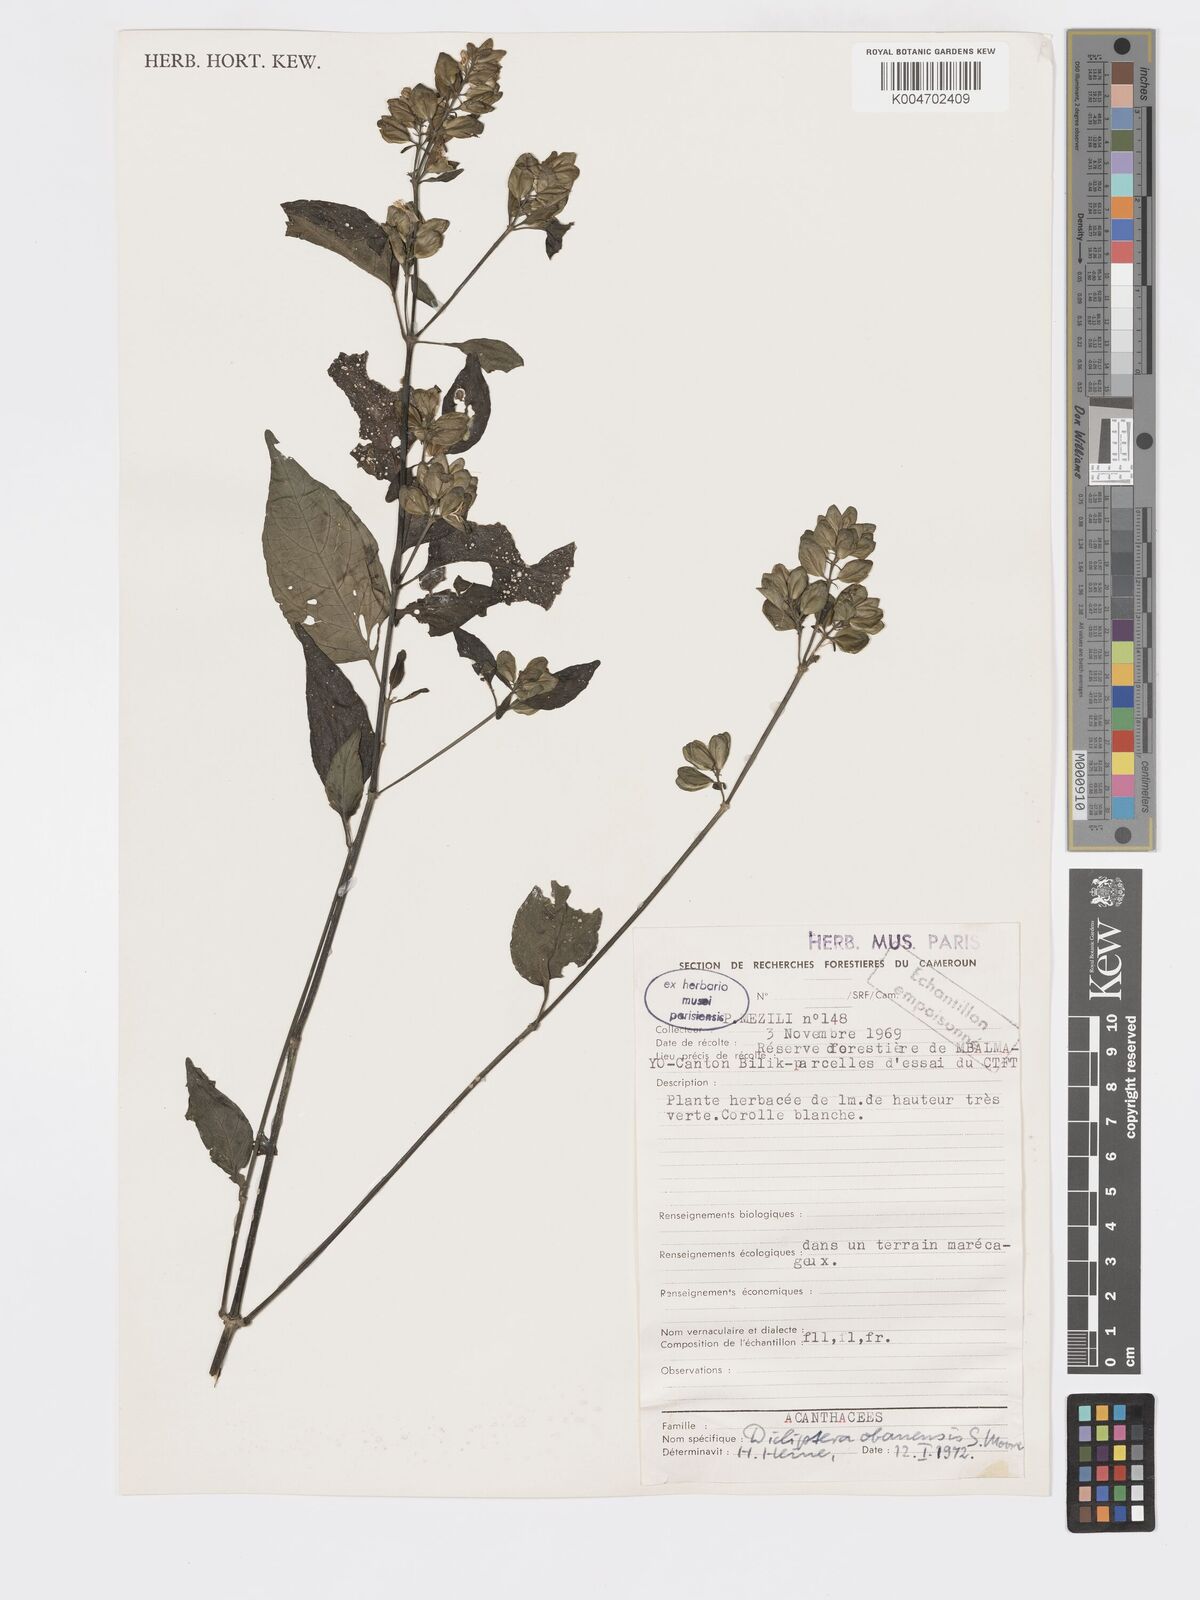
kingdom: Plantae
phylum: Tracheophyta
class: Magnoliopsida
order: Lamiales
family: Acanthaceae
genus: Dicliptera
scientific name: Dicliptera elliotii
